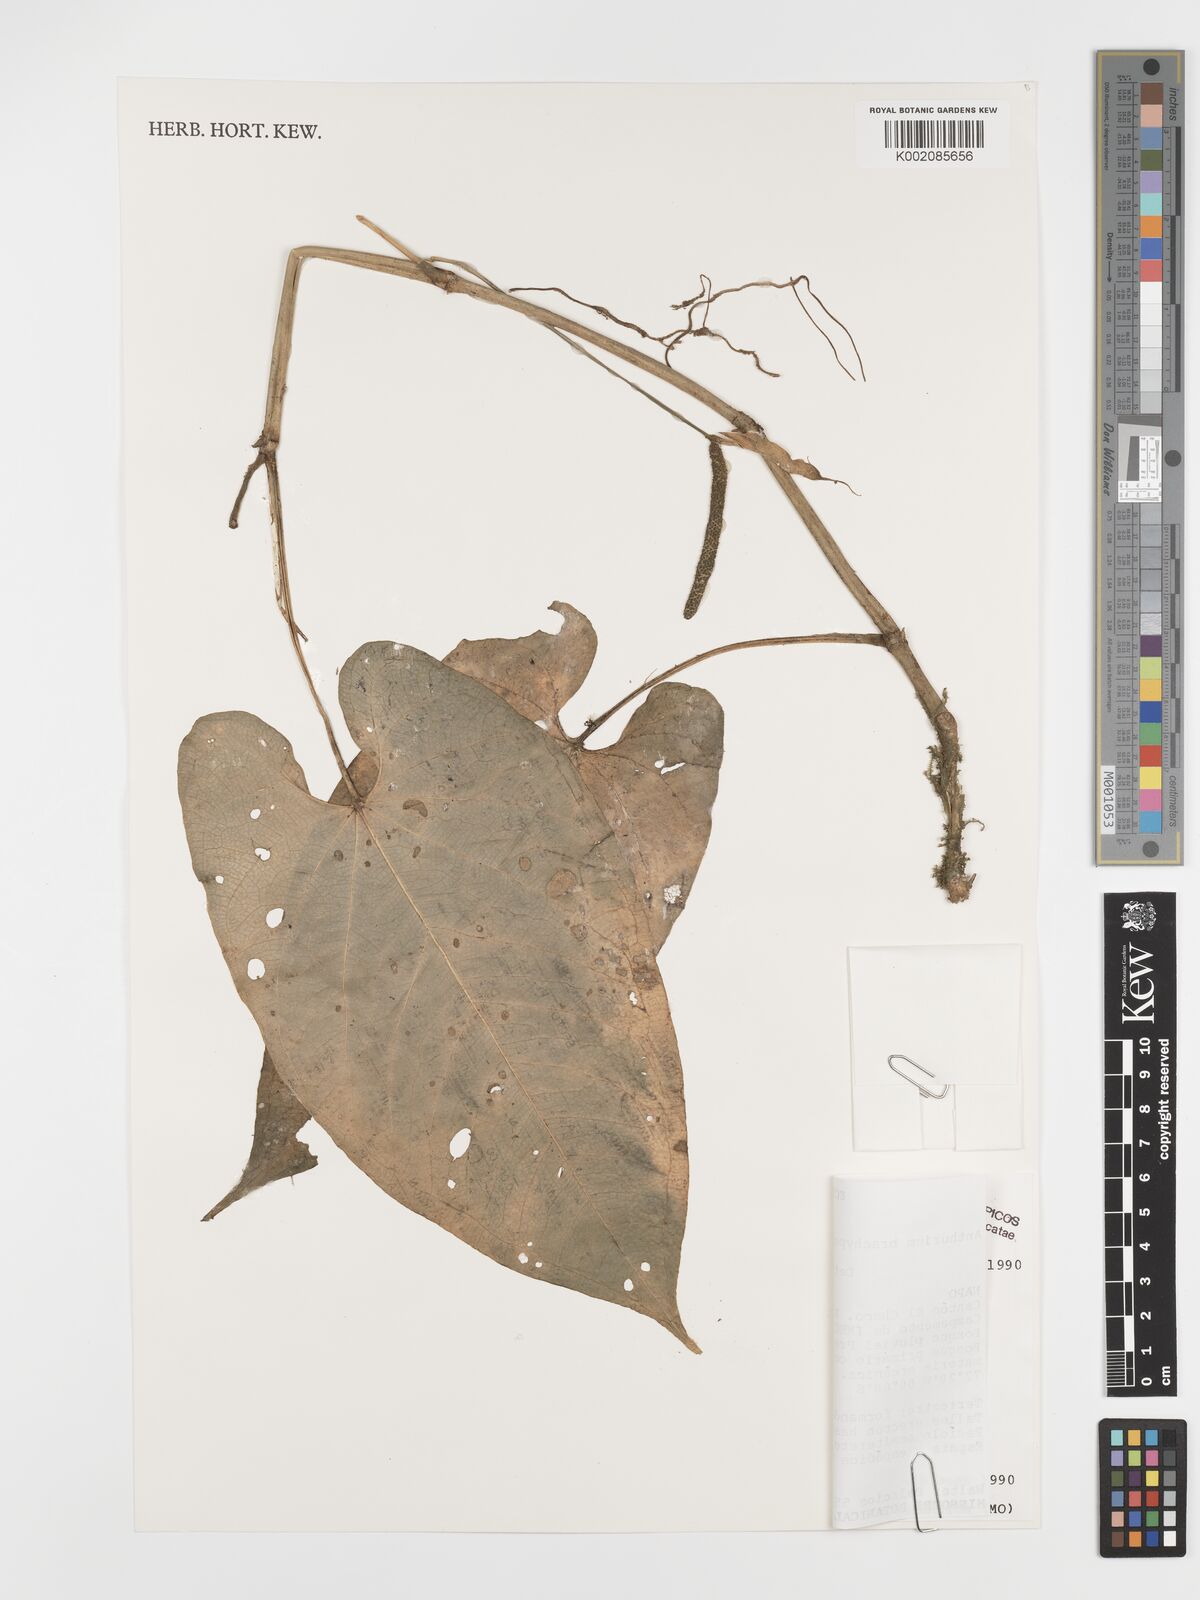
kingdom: Plantae
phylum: Tracheophyta
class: Liliopsida
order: Alismatales
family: Araceae
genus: Anthurium
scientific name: Anthurium brachypodum
